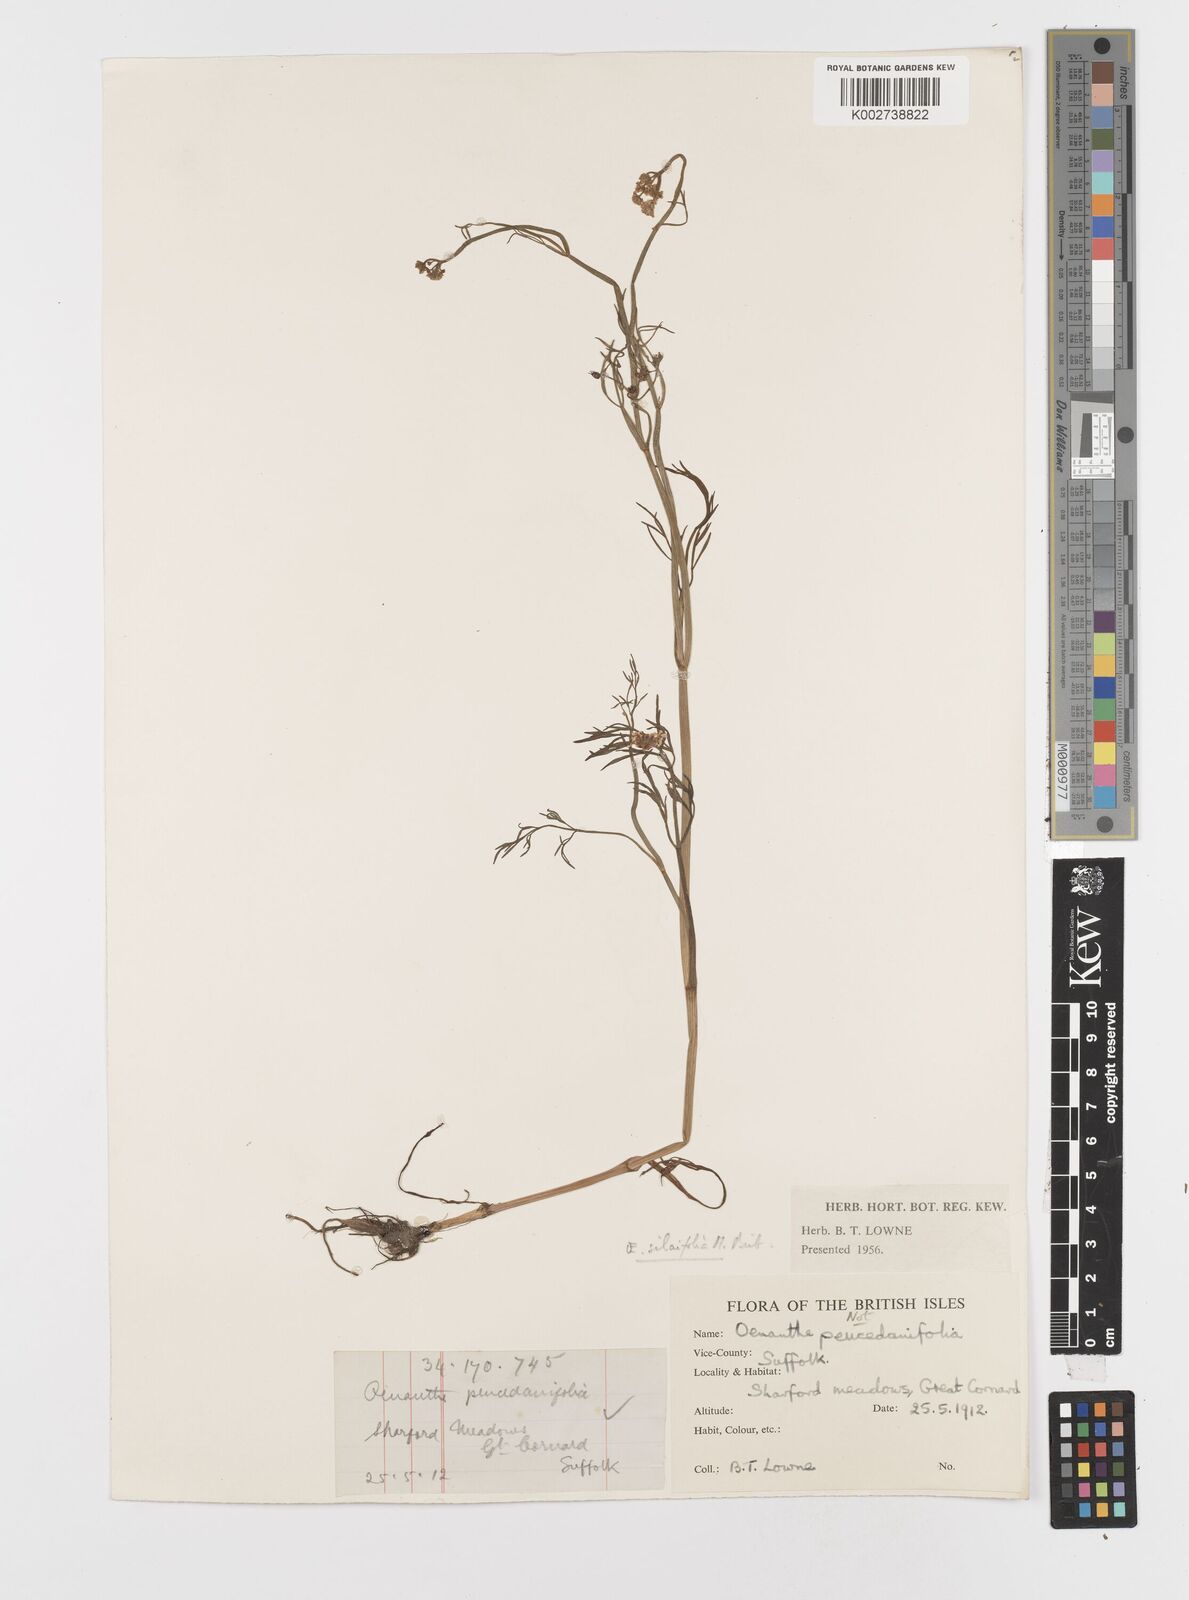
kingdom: Plantae
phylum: Tracheophyta
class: Magnoliopsida
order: Apiales
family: Apiaceae
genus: Oenanthe
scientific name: Oenanthe silaifolia
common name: Narrow-leaved water-dropwort
